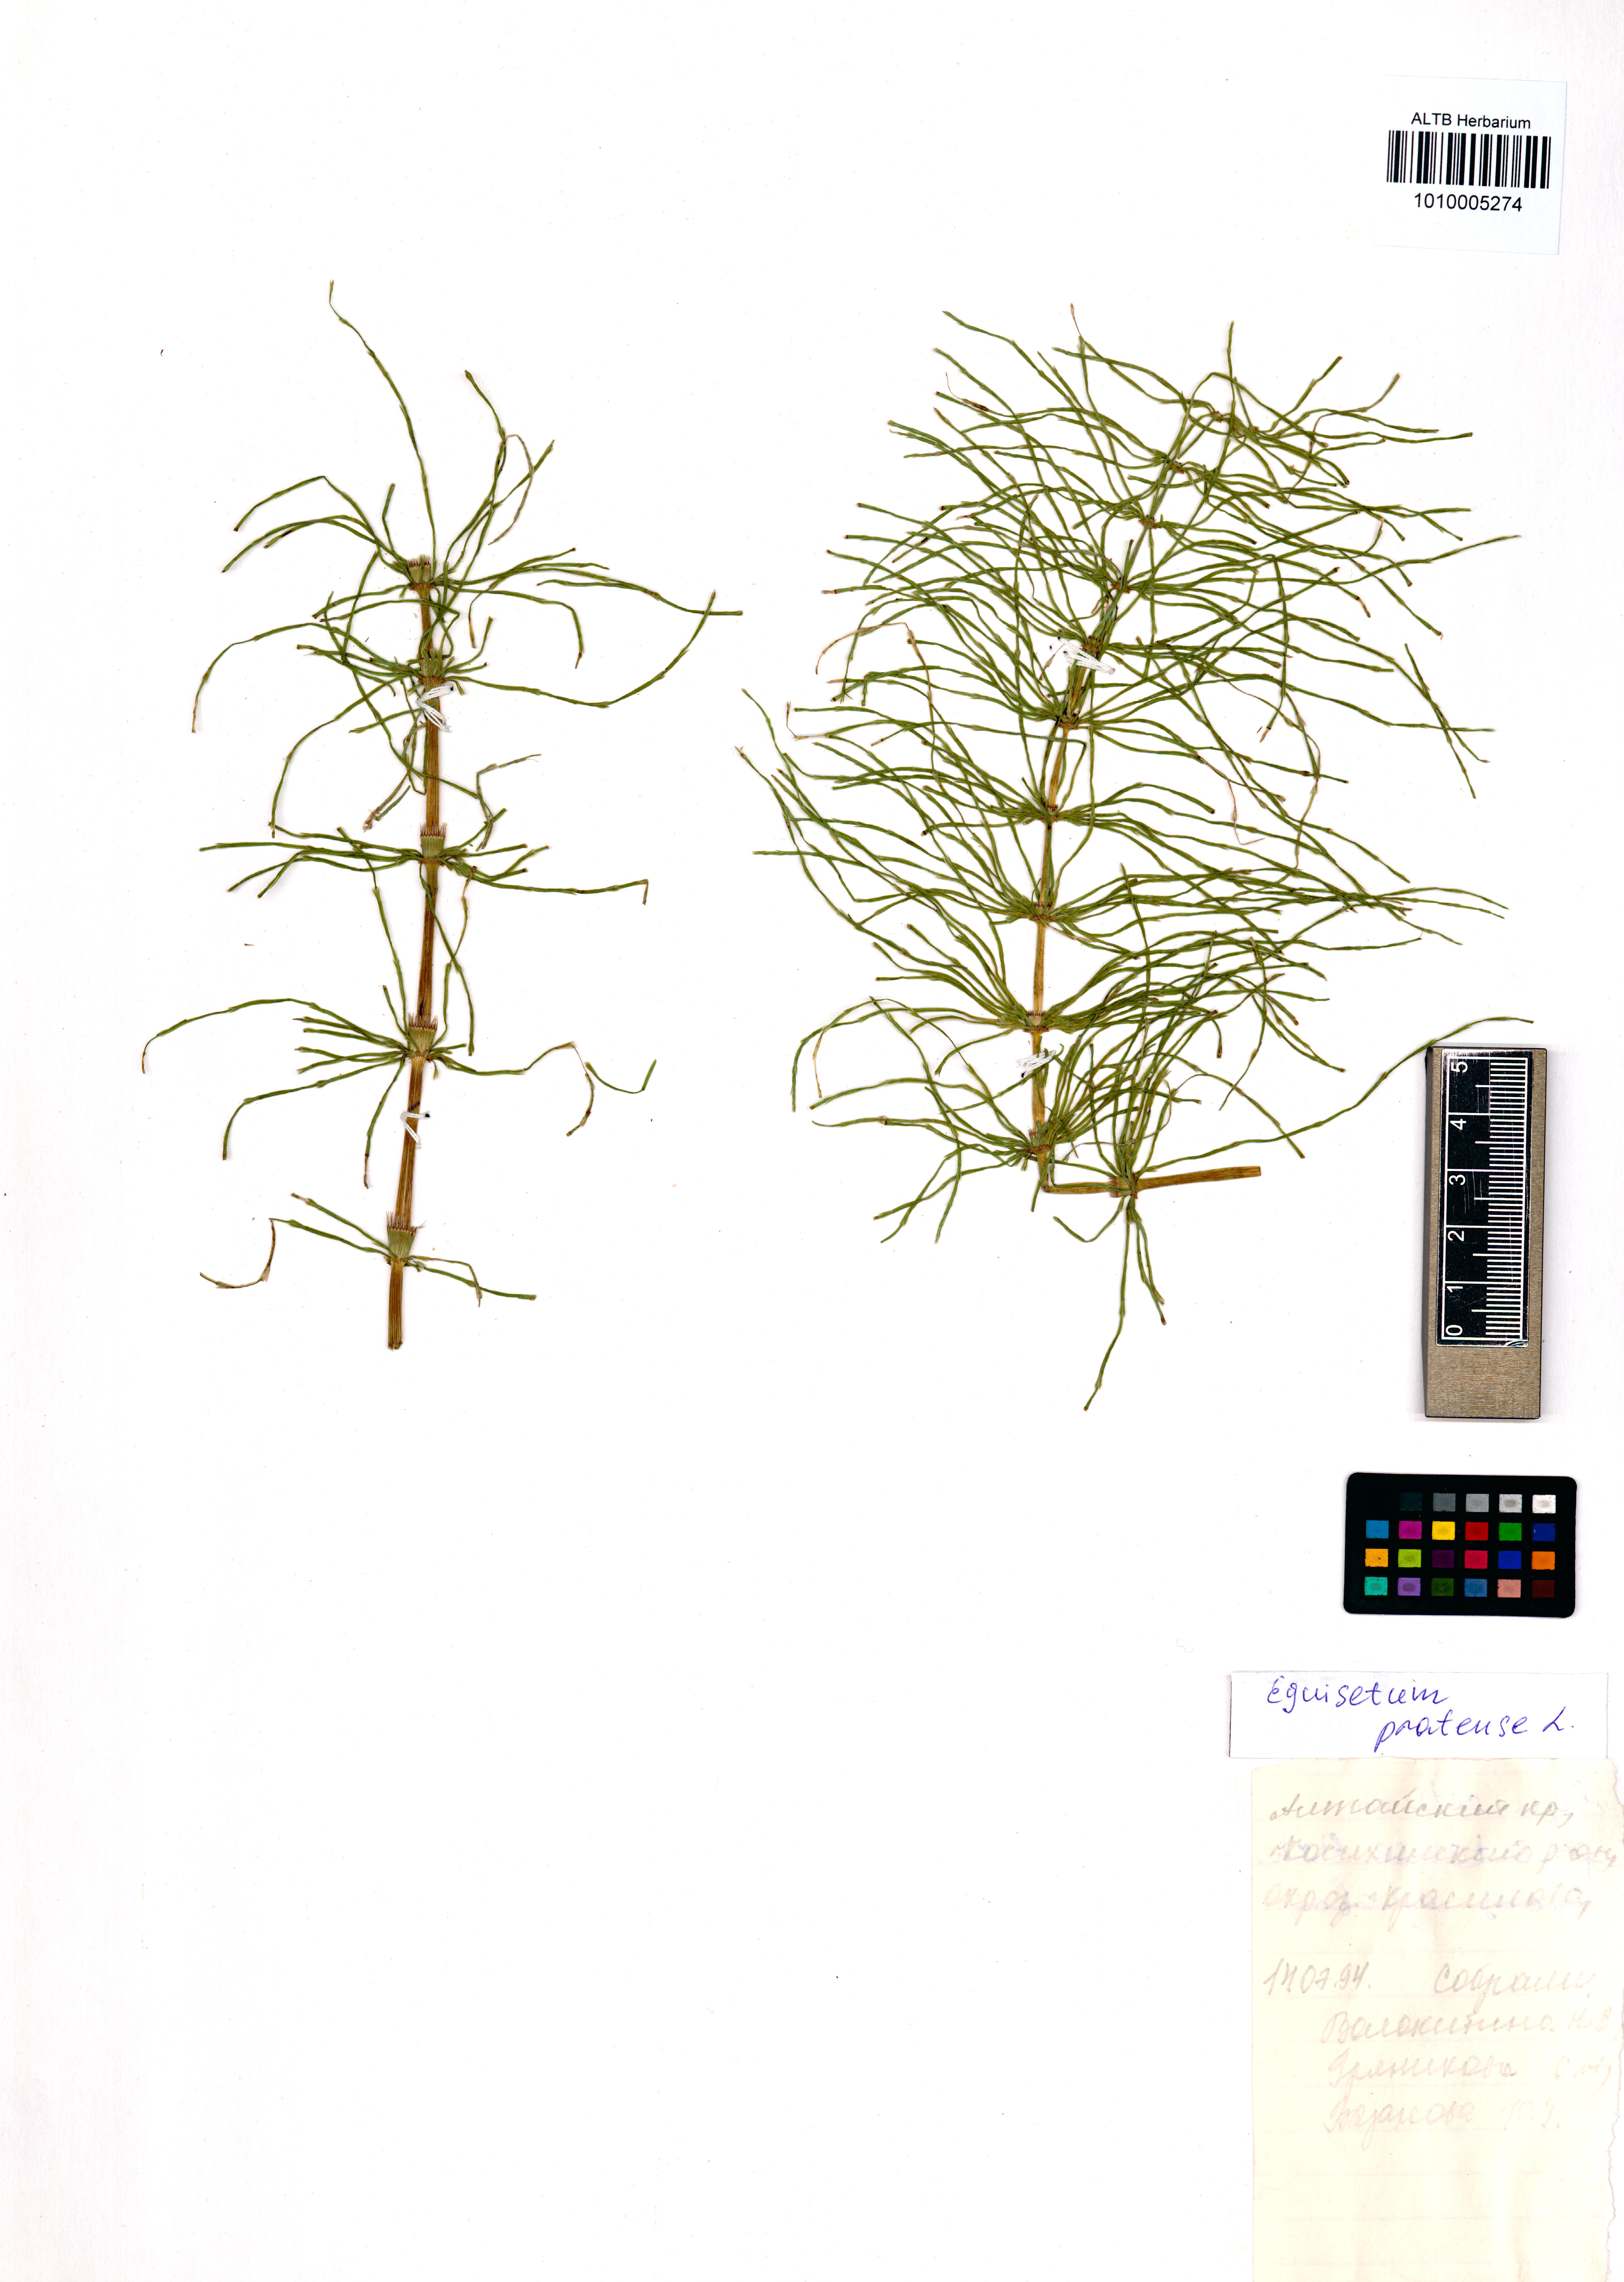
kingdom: Plantae
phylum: Tracheophyta
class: Polypodiopsida
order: Equisetales
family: Equisetaceae
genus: Equisetum
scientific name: Equisetum pratense
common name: Meadow horsetail
